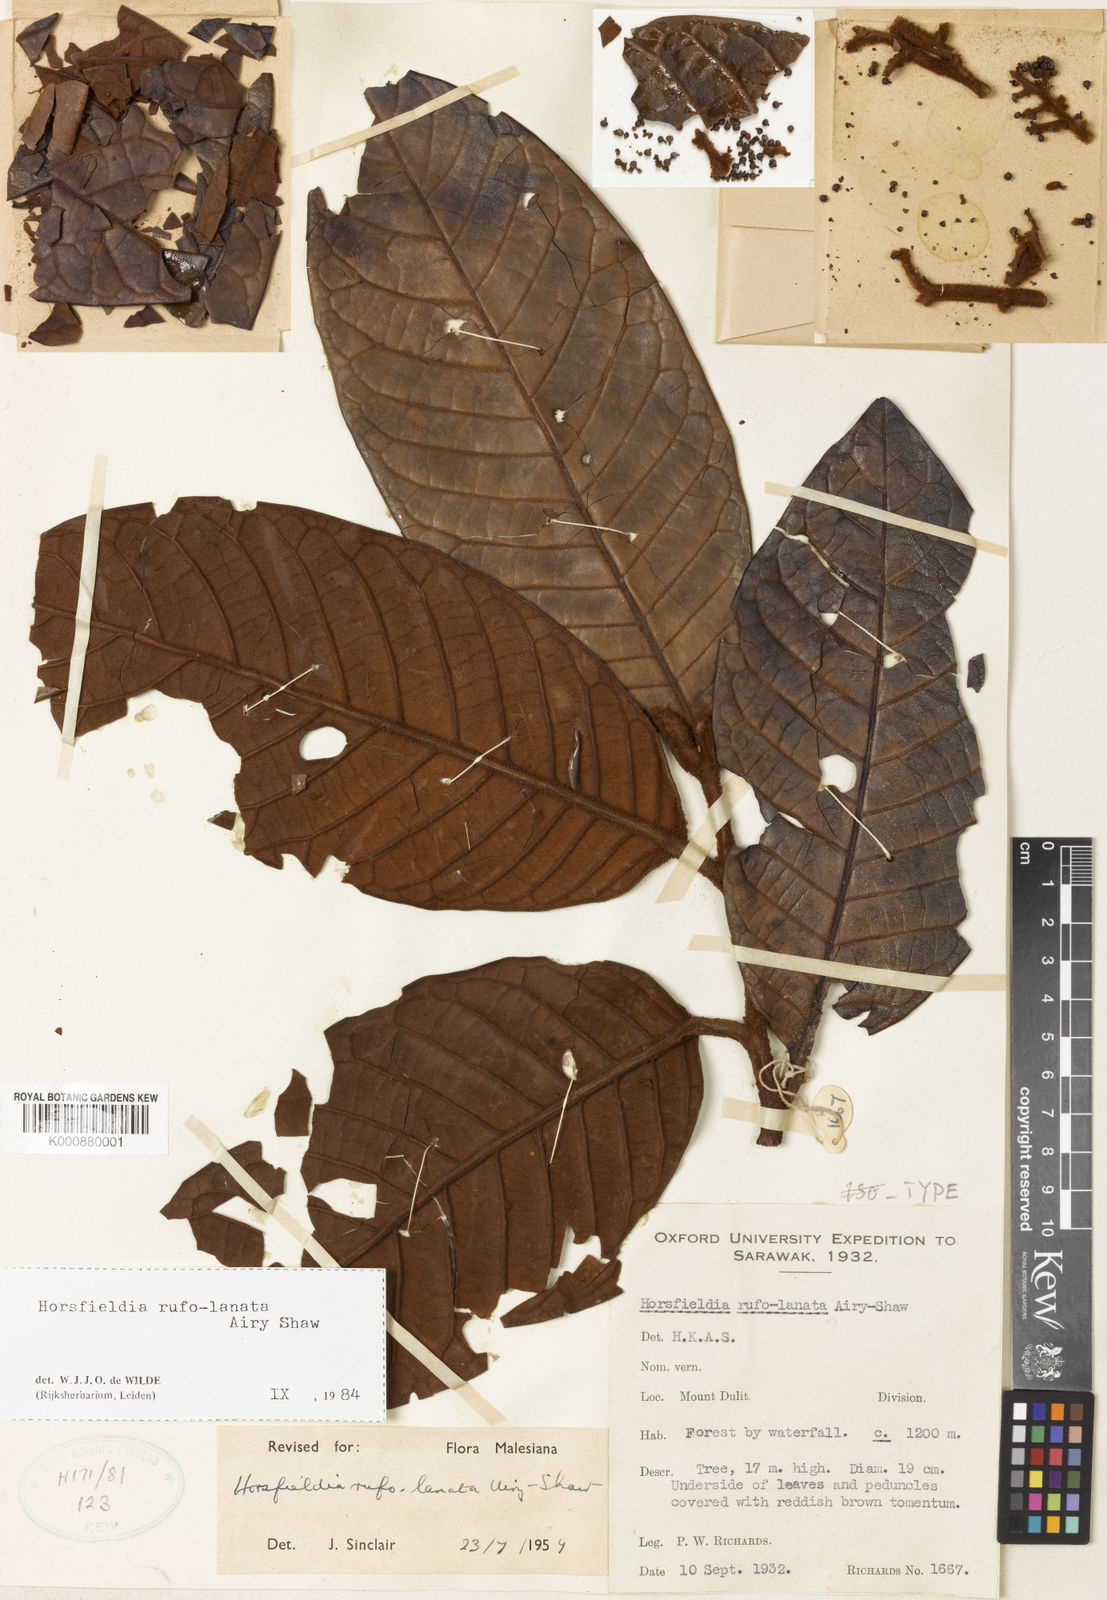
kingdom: Plantae
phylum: Tracheophyta
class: Magnoliopsida
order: Magnoliales
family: Myristicaceae
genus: Horsfieldia
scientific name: Horsfieldia rufolanata
